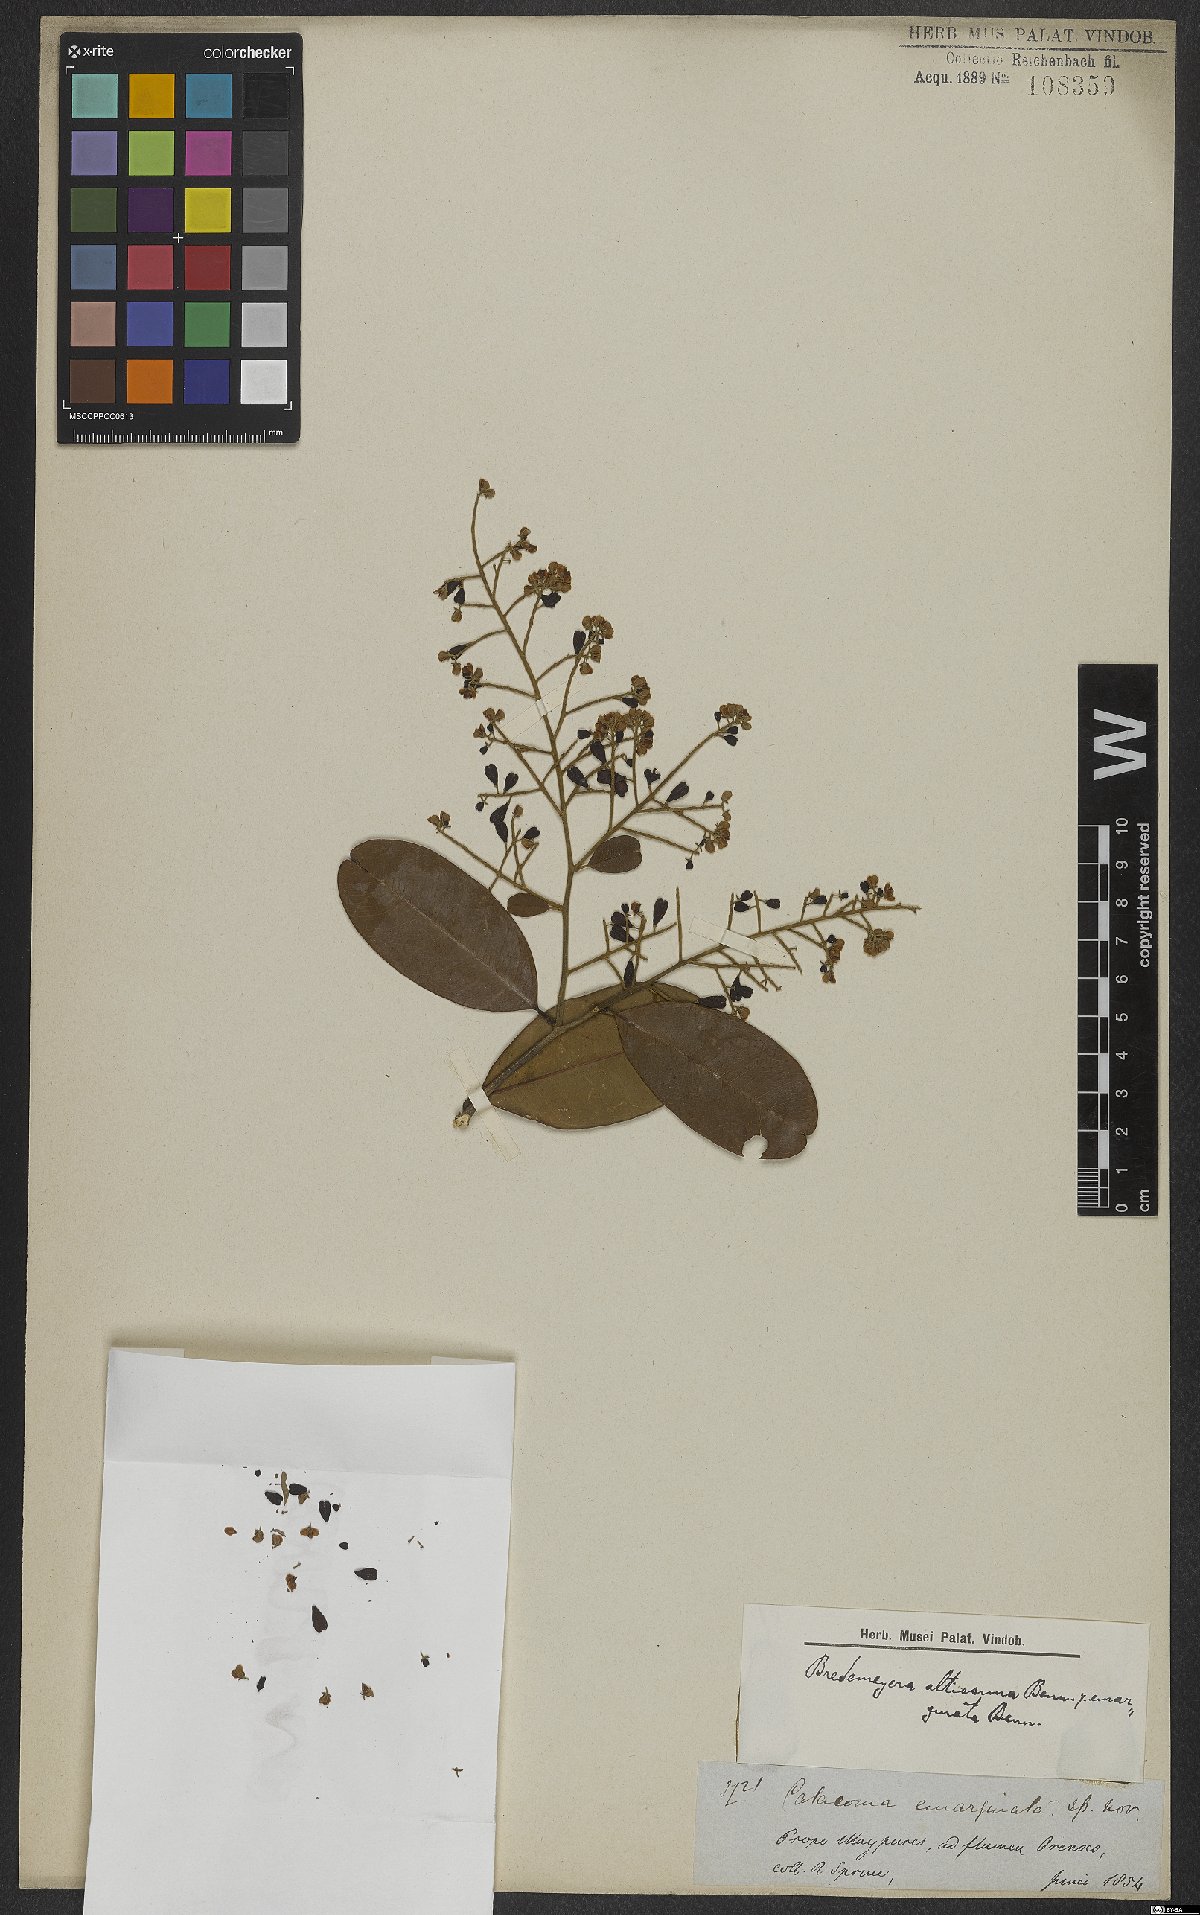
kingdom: Plantae
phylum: Tracheophyta
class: Magnoliopsida
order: Fabales
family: Polygalaceae
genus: Bredemeyera
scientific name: Bredemeyera divaricata
